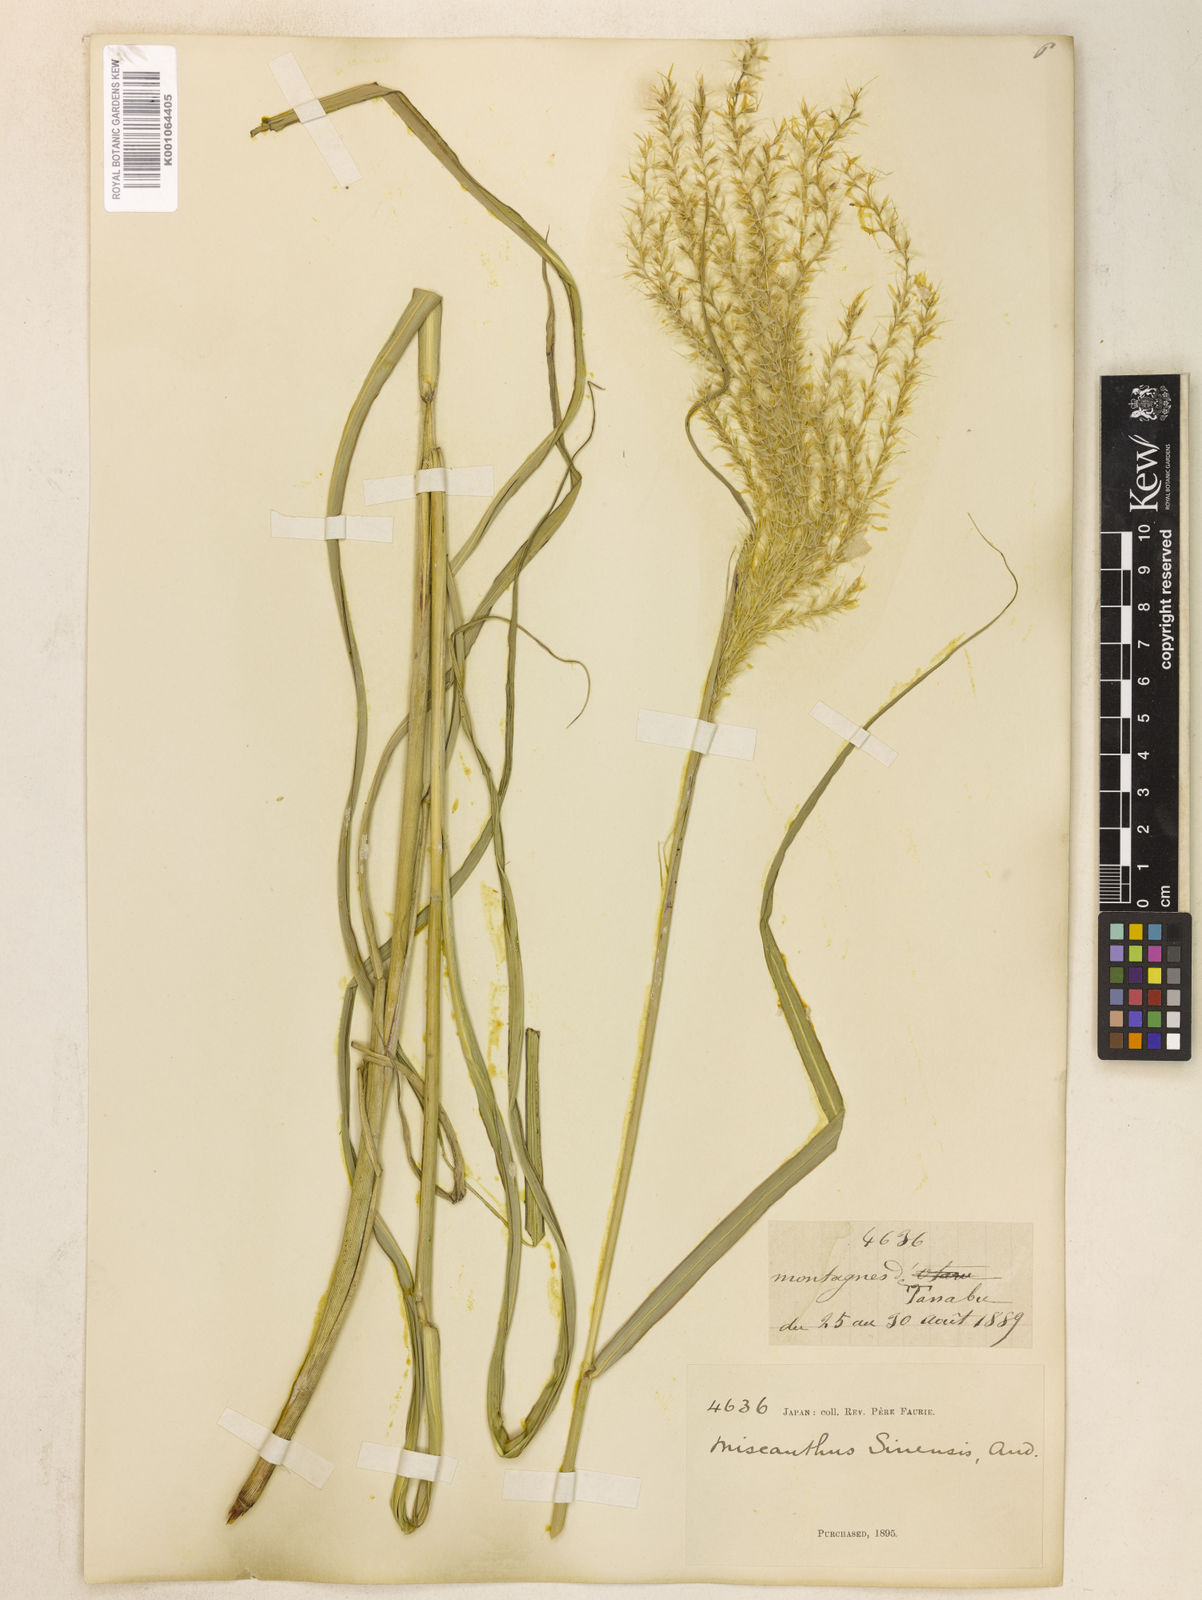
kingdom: Plantae
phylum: Tracheophyta
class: Liliopsida
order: Poales
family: Poaceae
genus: Miscanthus
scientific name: Miscanthus sinensis
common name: Chinese silvergrass
